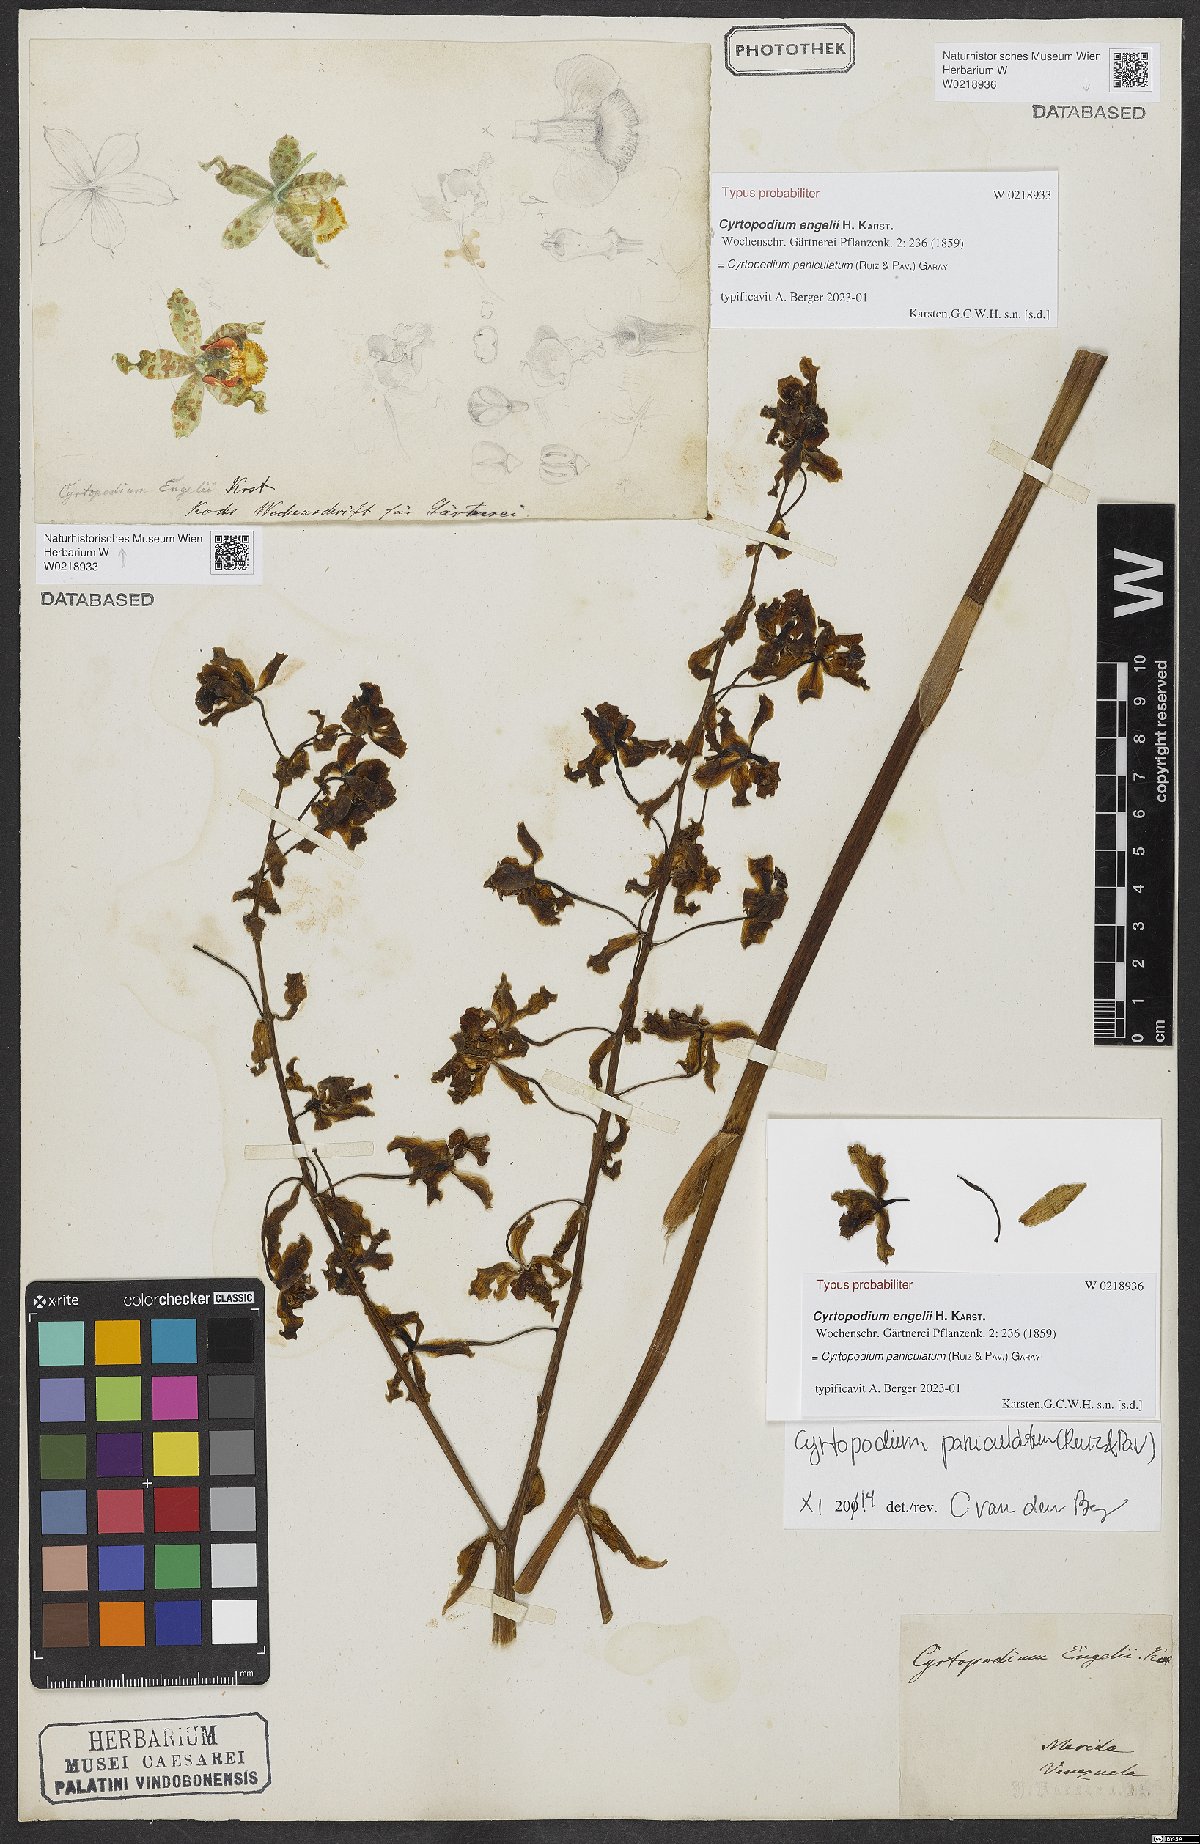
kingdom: Plantae
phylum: Tracheophyta
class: Liliopsida
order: Asparagales
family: Orchidaceae
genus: Cyrtopodium
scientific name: Cyrtopodium paniculatum
